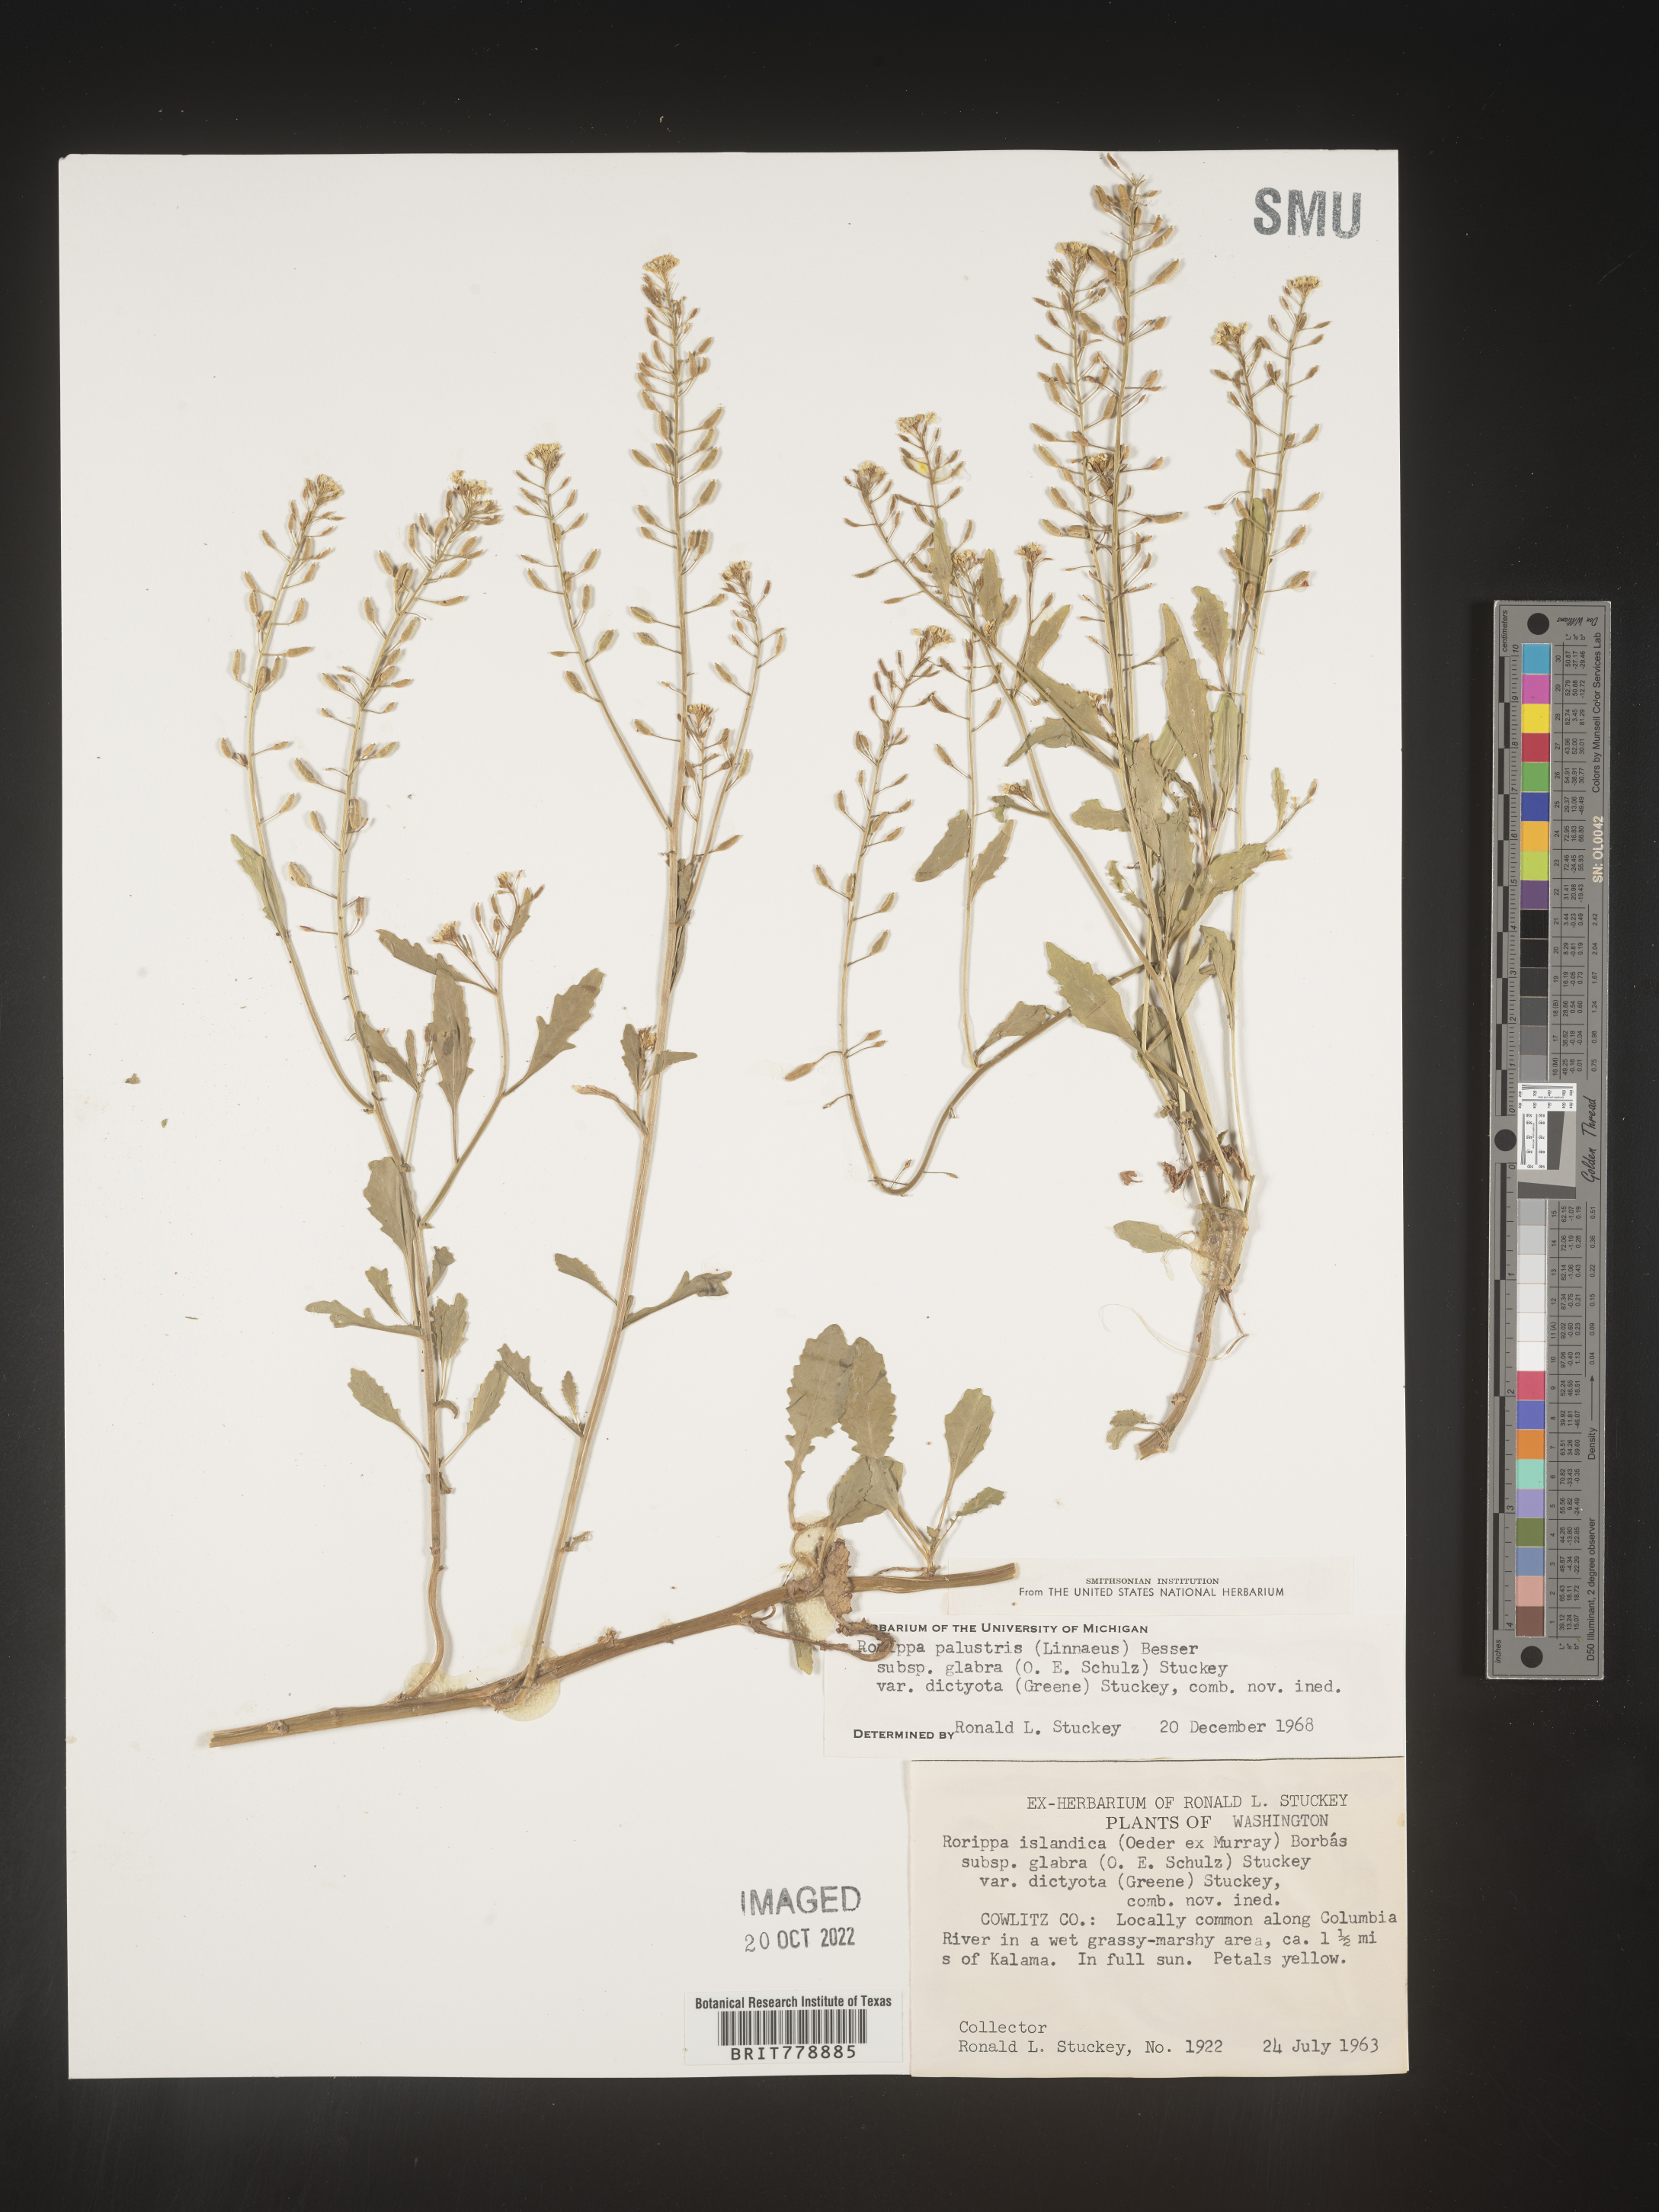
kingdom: Plantae
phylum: Tracheophyta
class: Magnoliopsida
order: Brassicales
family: Brassicaceae
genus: Rorippa
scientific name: Rorippa palustris
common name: Marsh yellow-cress
